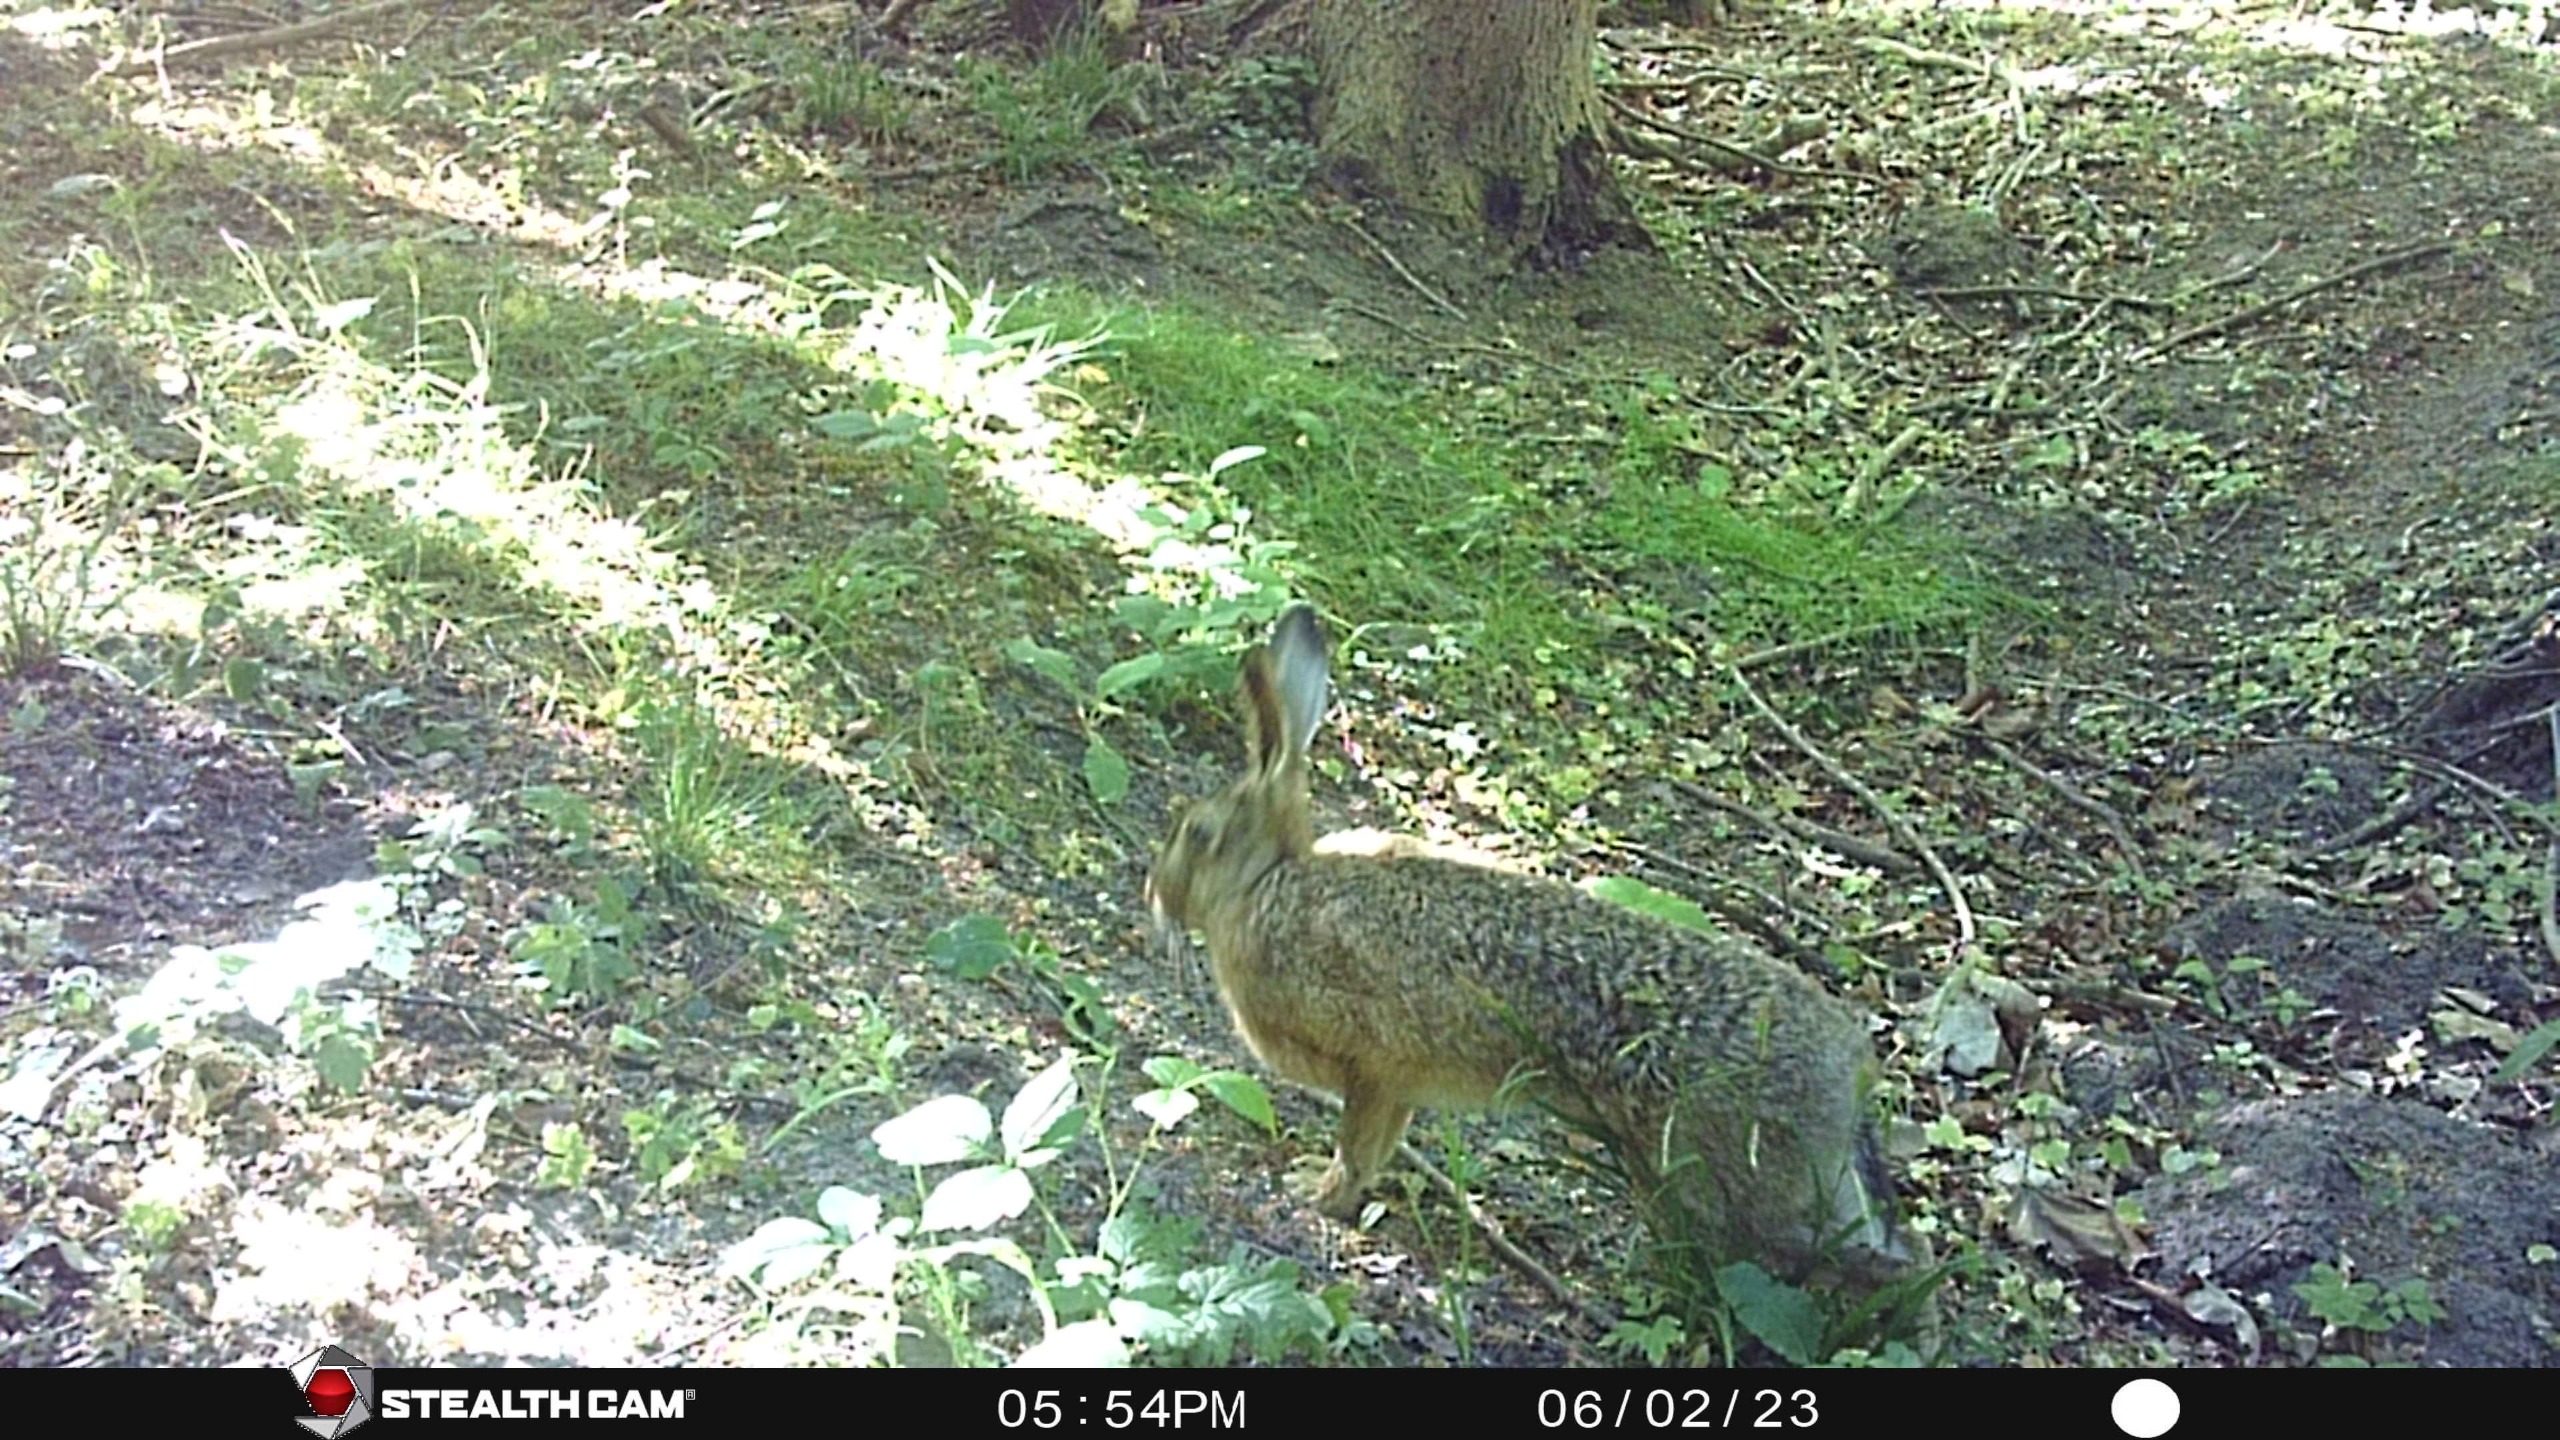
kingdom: Animalia
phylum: Chordata
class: Mammalia
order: Lagomorpha
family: Leporidae
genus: Lepus
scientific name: Lepus europaeus
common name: Hare
